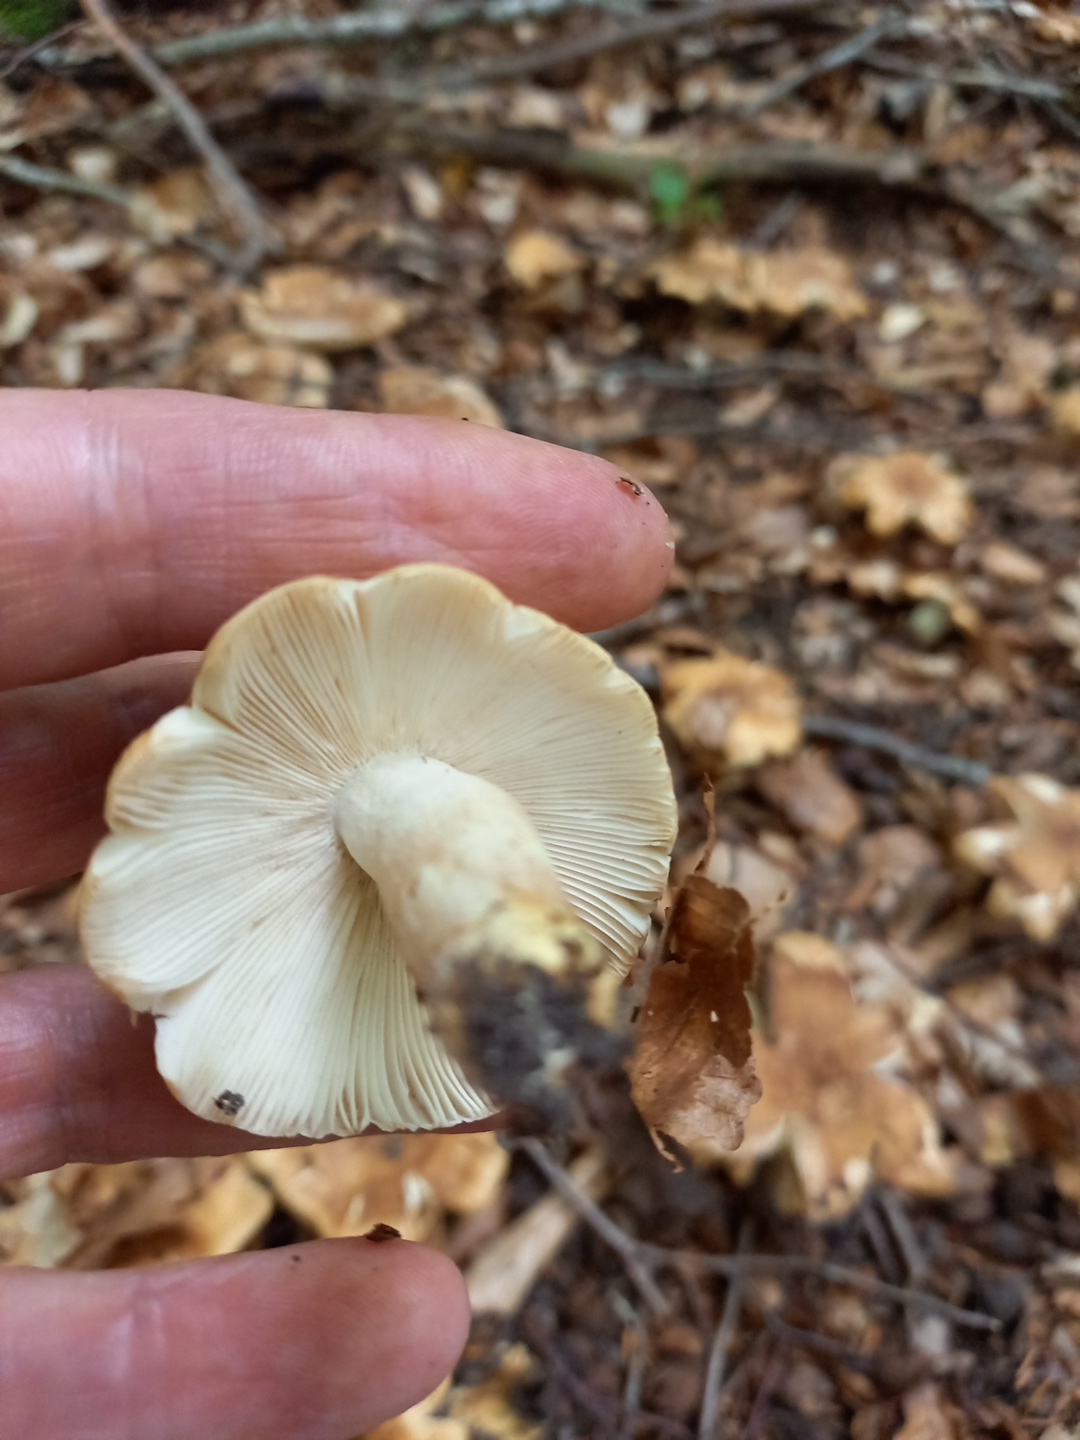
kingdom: Fungi
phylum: Basidiomycota
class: Agaricomycetes
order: Russulales
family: Russulaceae
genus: Russula
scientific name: Russula foetens
